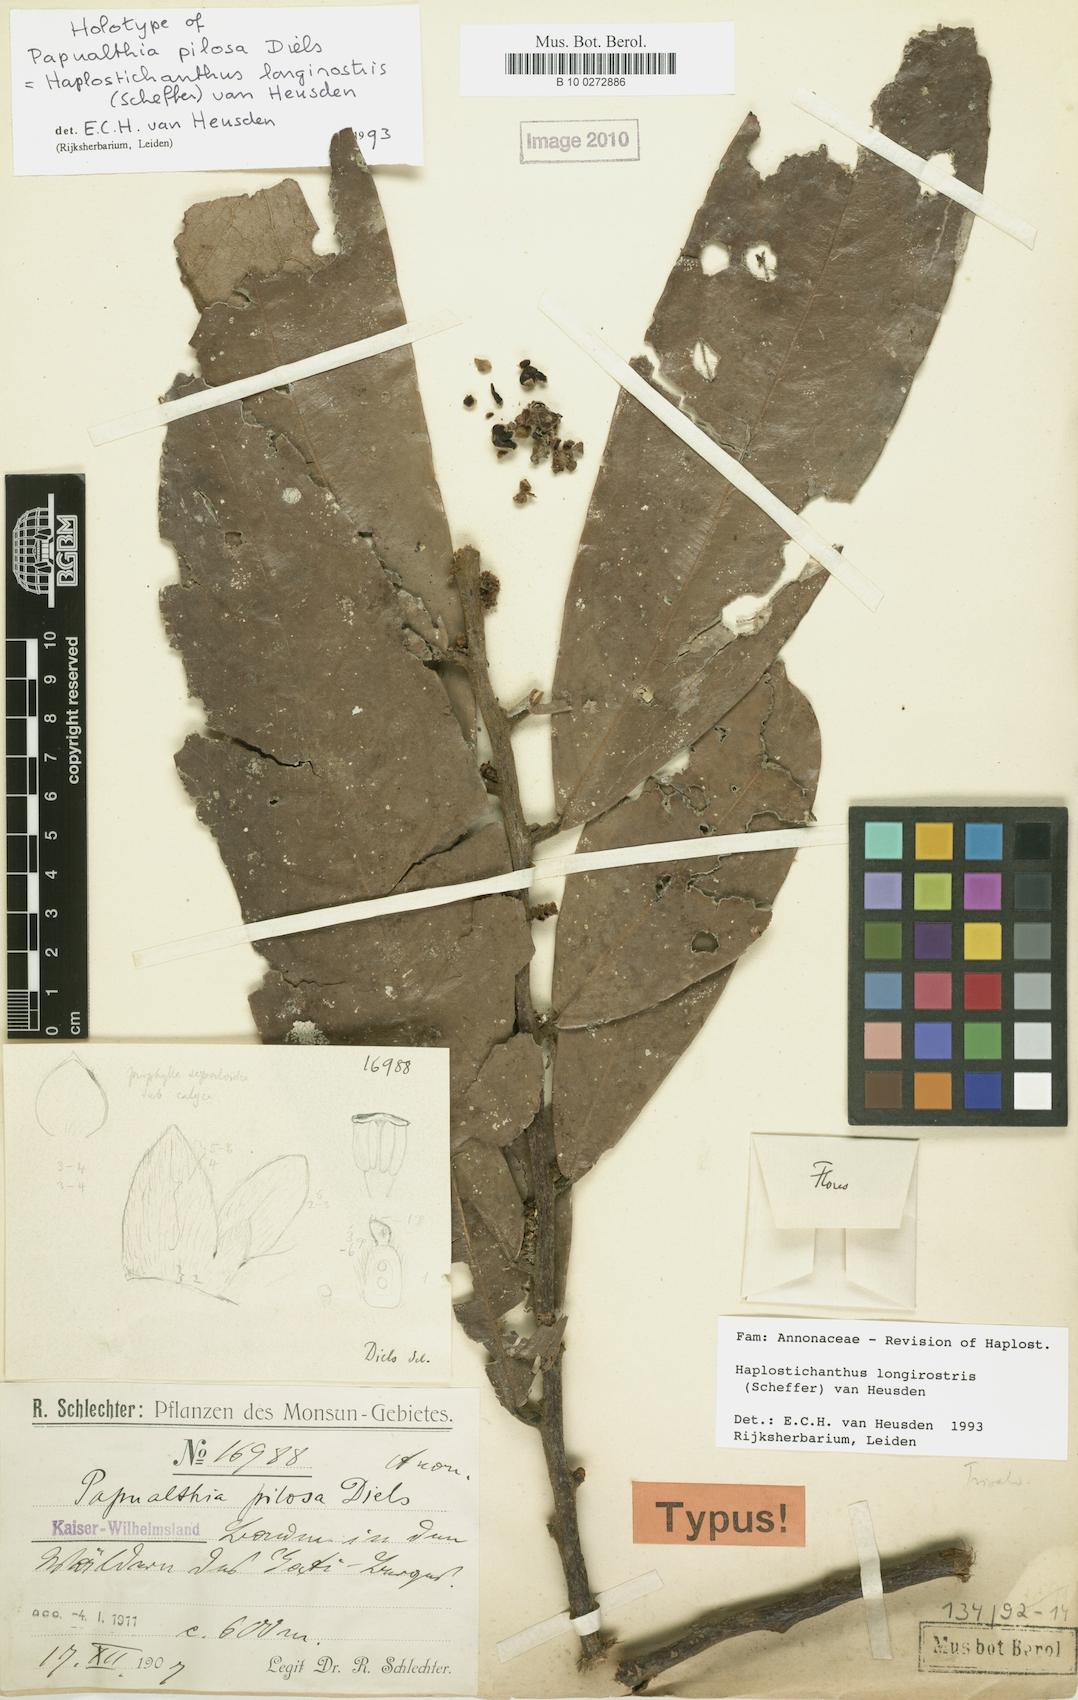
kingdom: Plantae
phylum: Tracheophyta
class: Magnoliopsida
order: Magnoliales
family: Annonaceae
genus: Haplostichanthus
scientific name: Haplostichanthus longirostris
